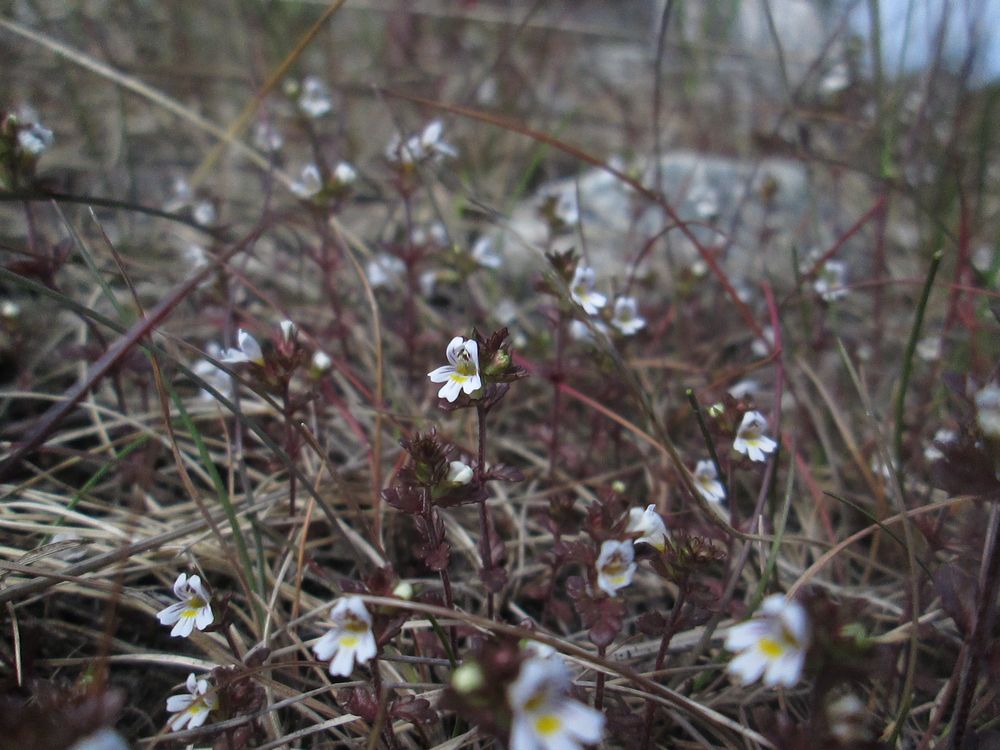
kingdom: Plantae
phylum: Tracheophyta
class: Magnoliopsida
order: Lamiales
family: Orobanchaceae
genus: Euphrasia
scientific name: Euphrasia
